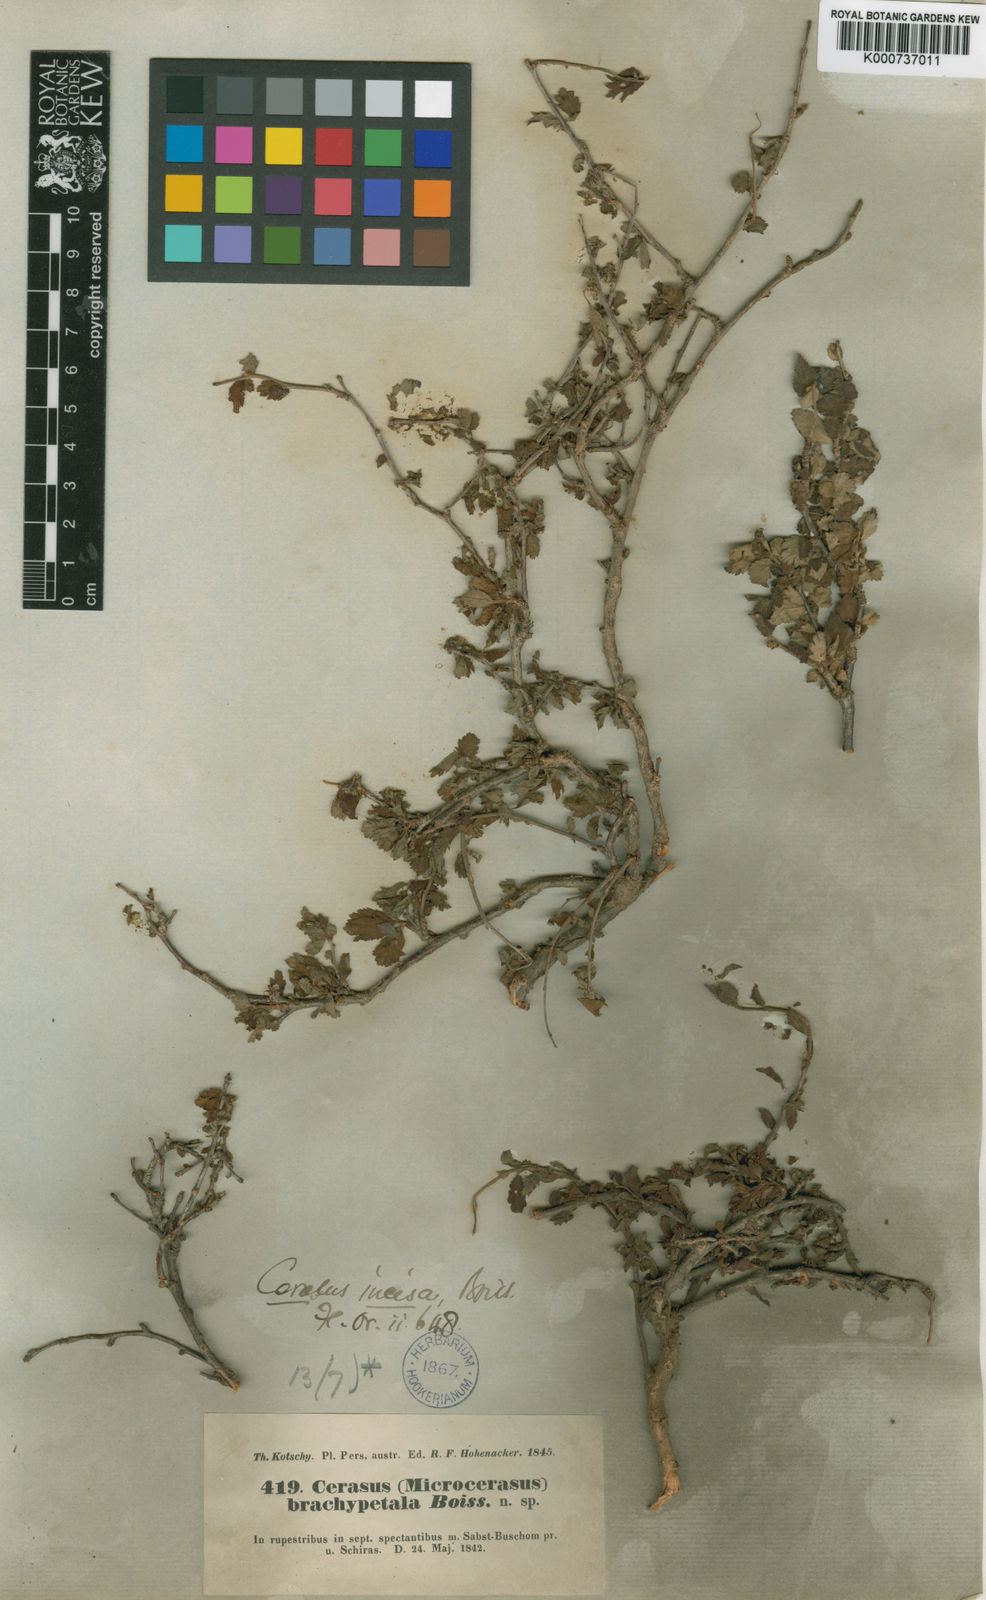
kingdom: Plantae
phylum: Tracheophyta
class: Magnoliopsida
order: Rosales
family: Rosaceae
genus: Prunus
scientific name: Prunus brachypetala
